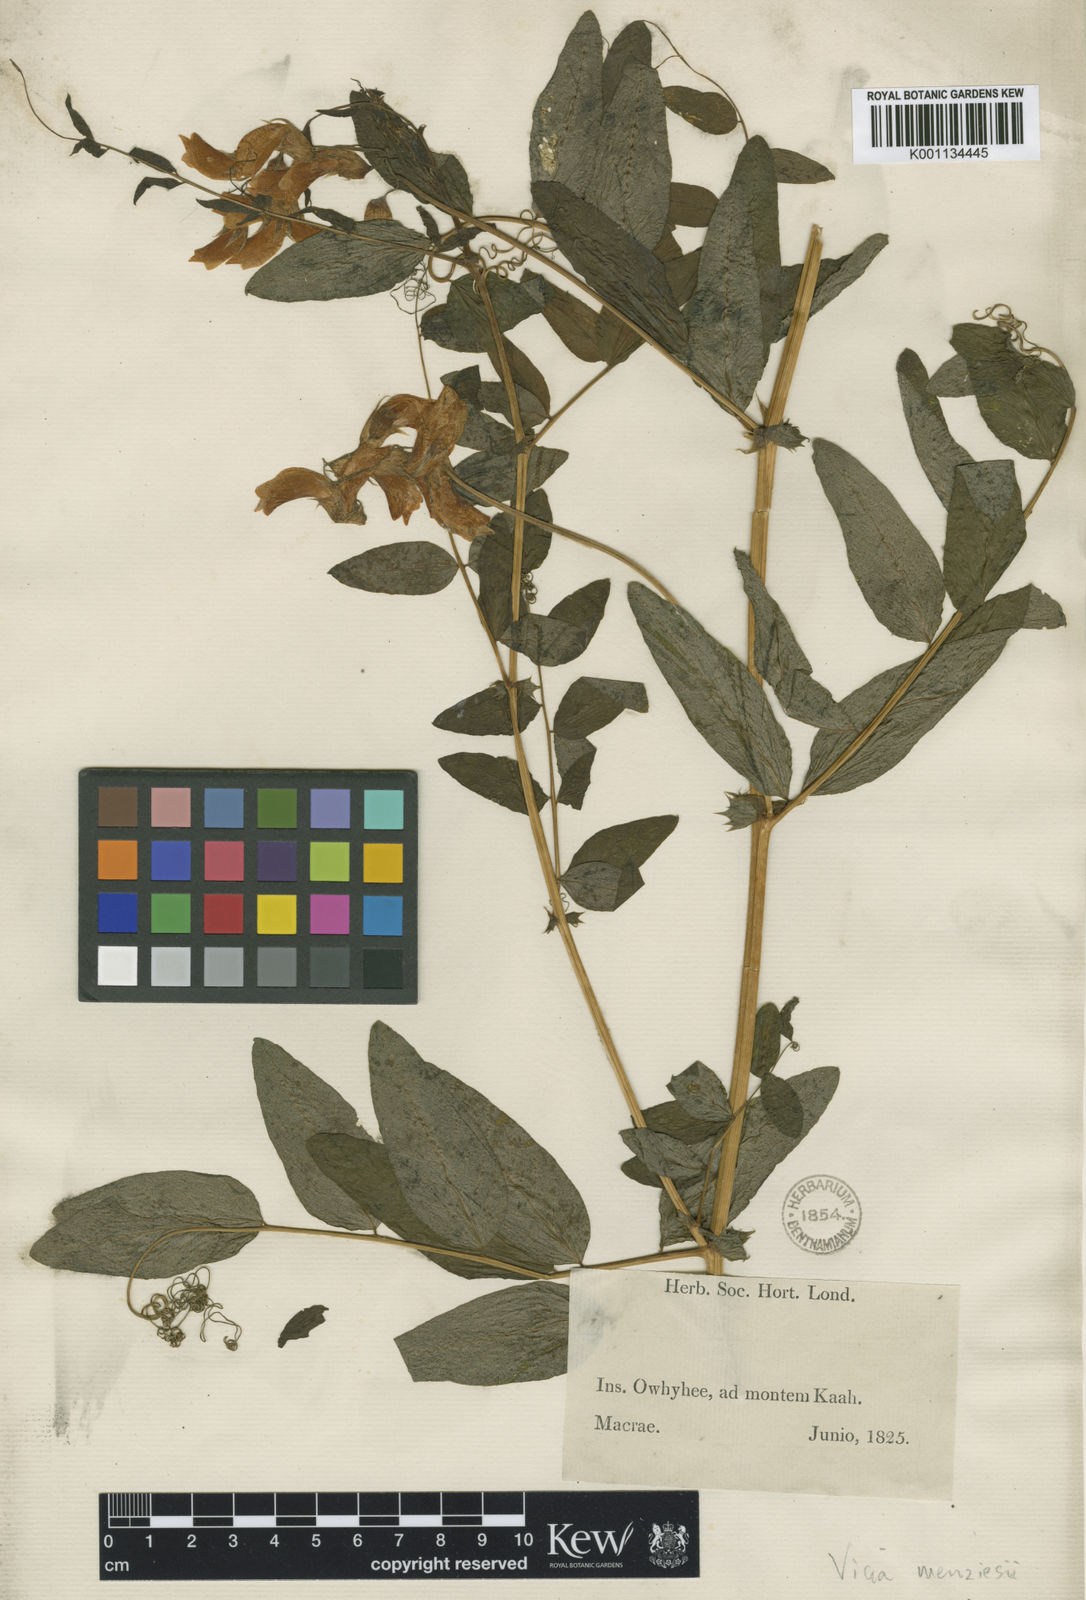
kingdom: Plantae
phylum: Tracheophyta
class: Magnoliopsida
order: Fabales
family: Fabaceae
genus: Vicia
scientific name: Vicia menziesii
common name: Hawaiian vetch
